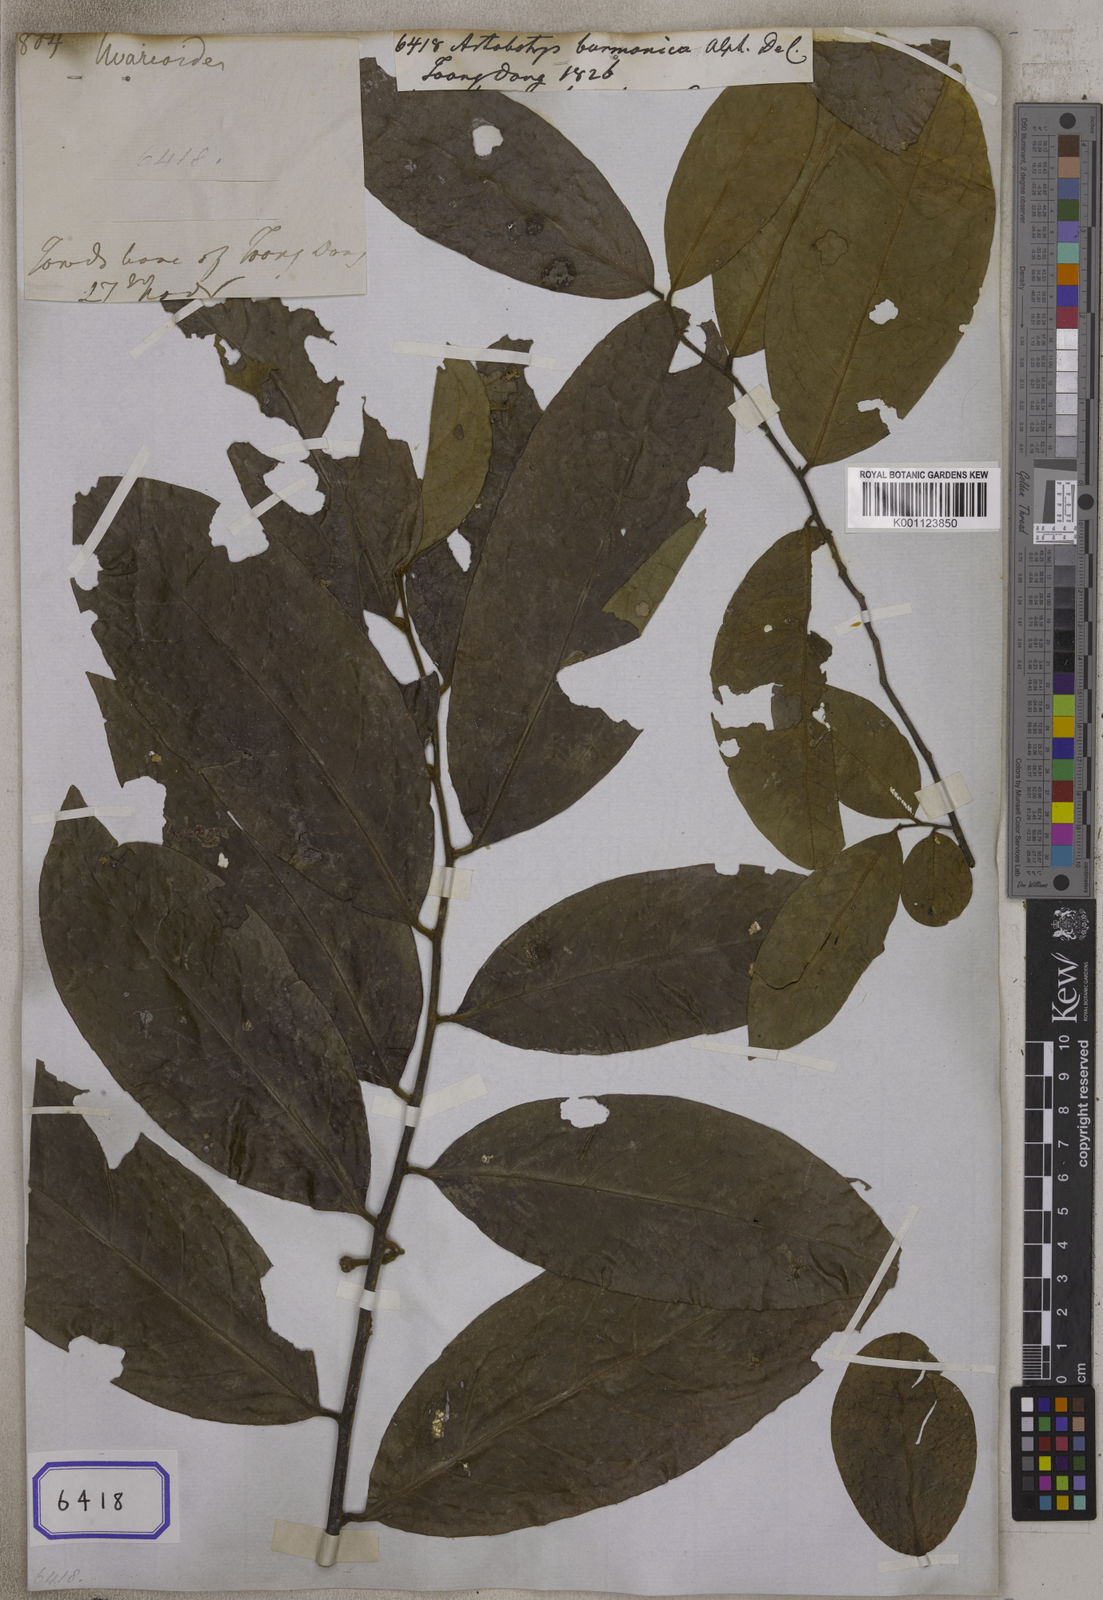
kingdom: Plantae
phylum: Tracheophyta
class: Magnoliopsida
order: Magnoliales
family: Annonaceae
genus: Artabotrys
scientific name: Artabotrys burmanicus
